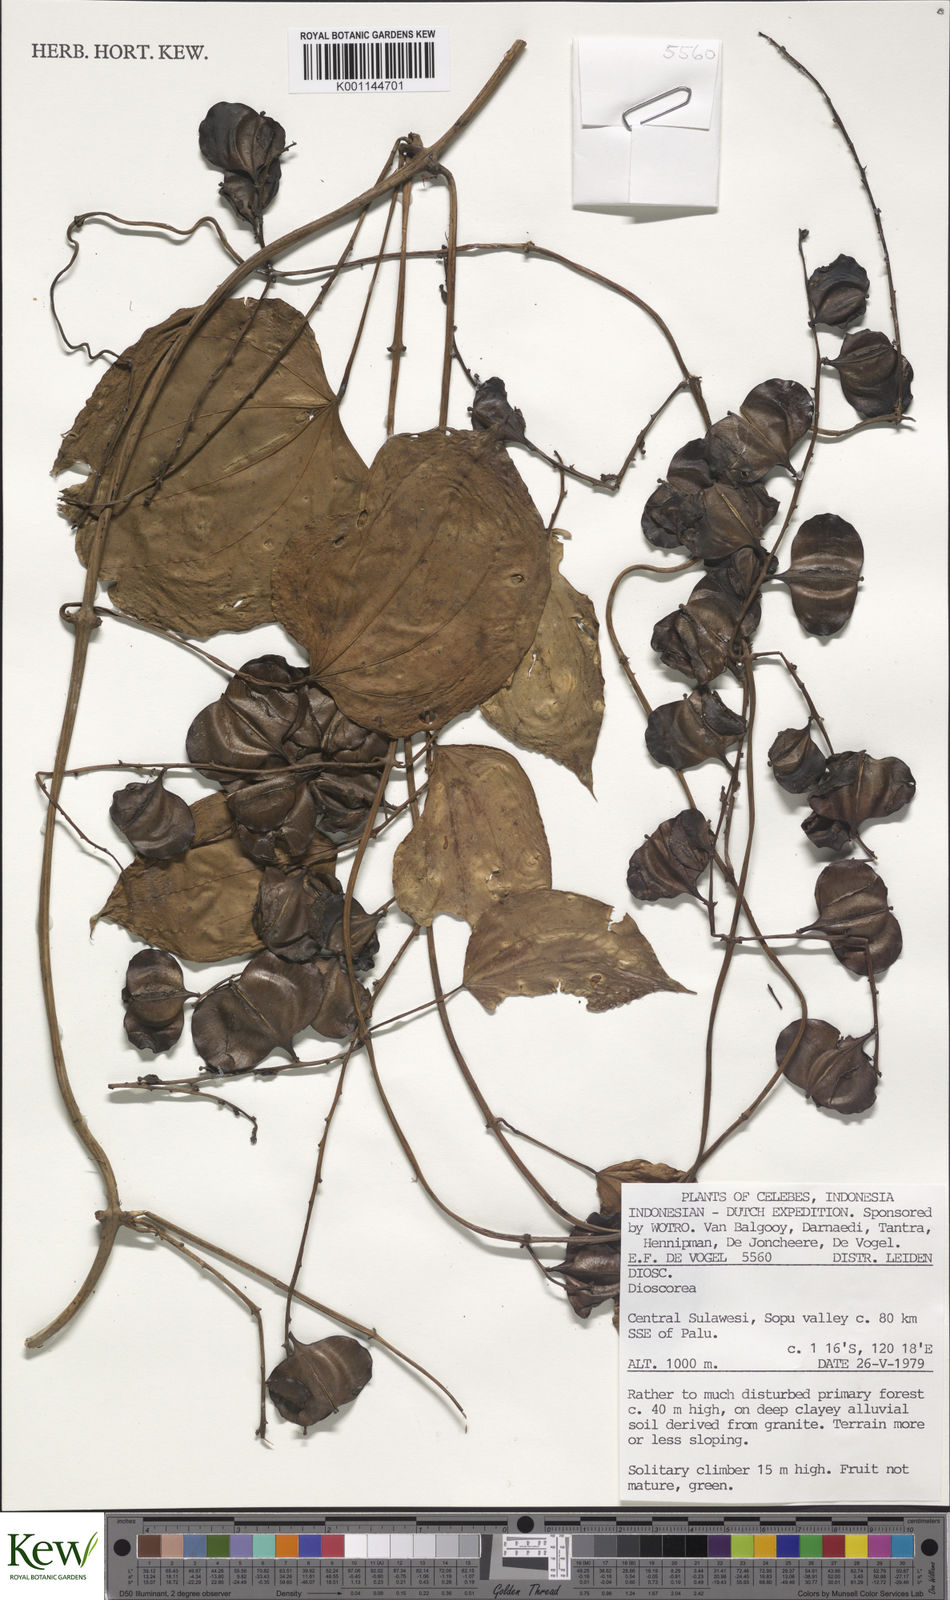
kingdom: Plantae
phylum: Tracheophyta
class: Liliopsida
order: Dioscoreales
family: Dioscoreaceae
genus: Dioscorea
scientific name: Dioscorea
